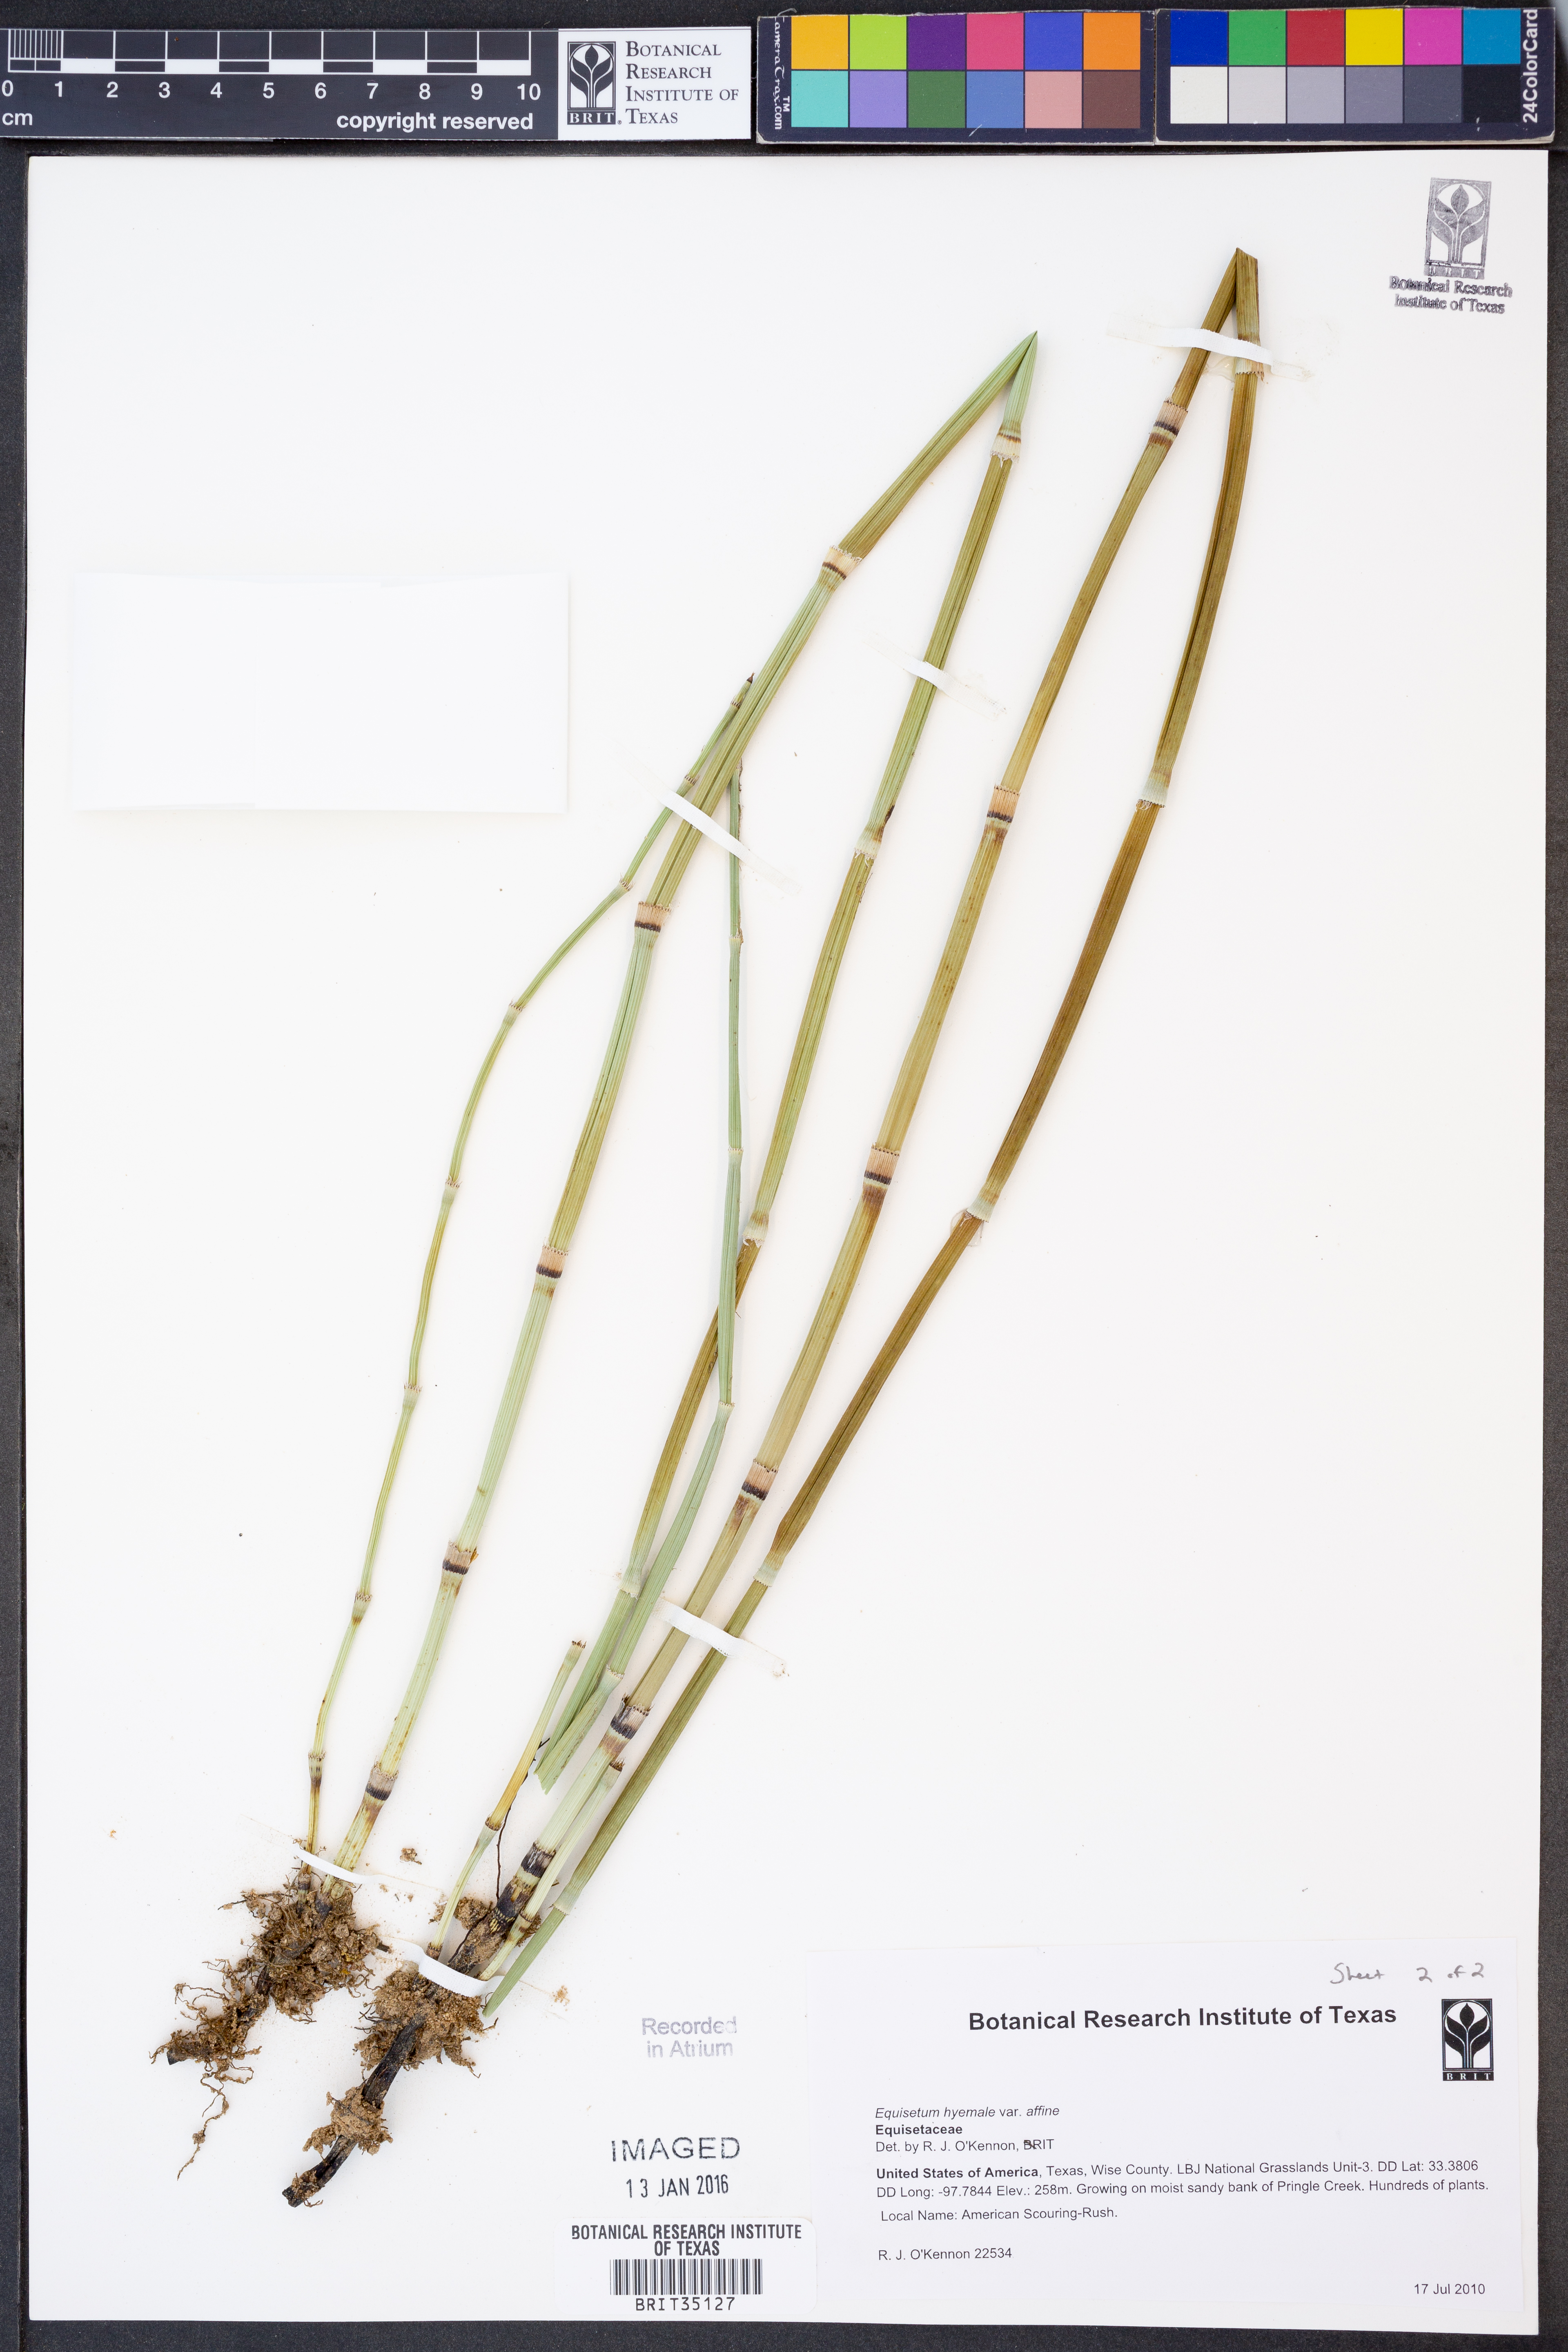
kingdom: Plantae
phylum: Tracheophyta
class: Polypodiopsida
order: Equisetales
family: Equisetaceae
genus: Equisetum
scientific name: Equisetum praealtum
